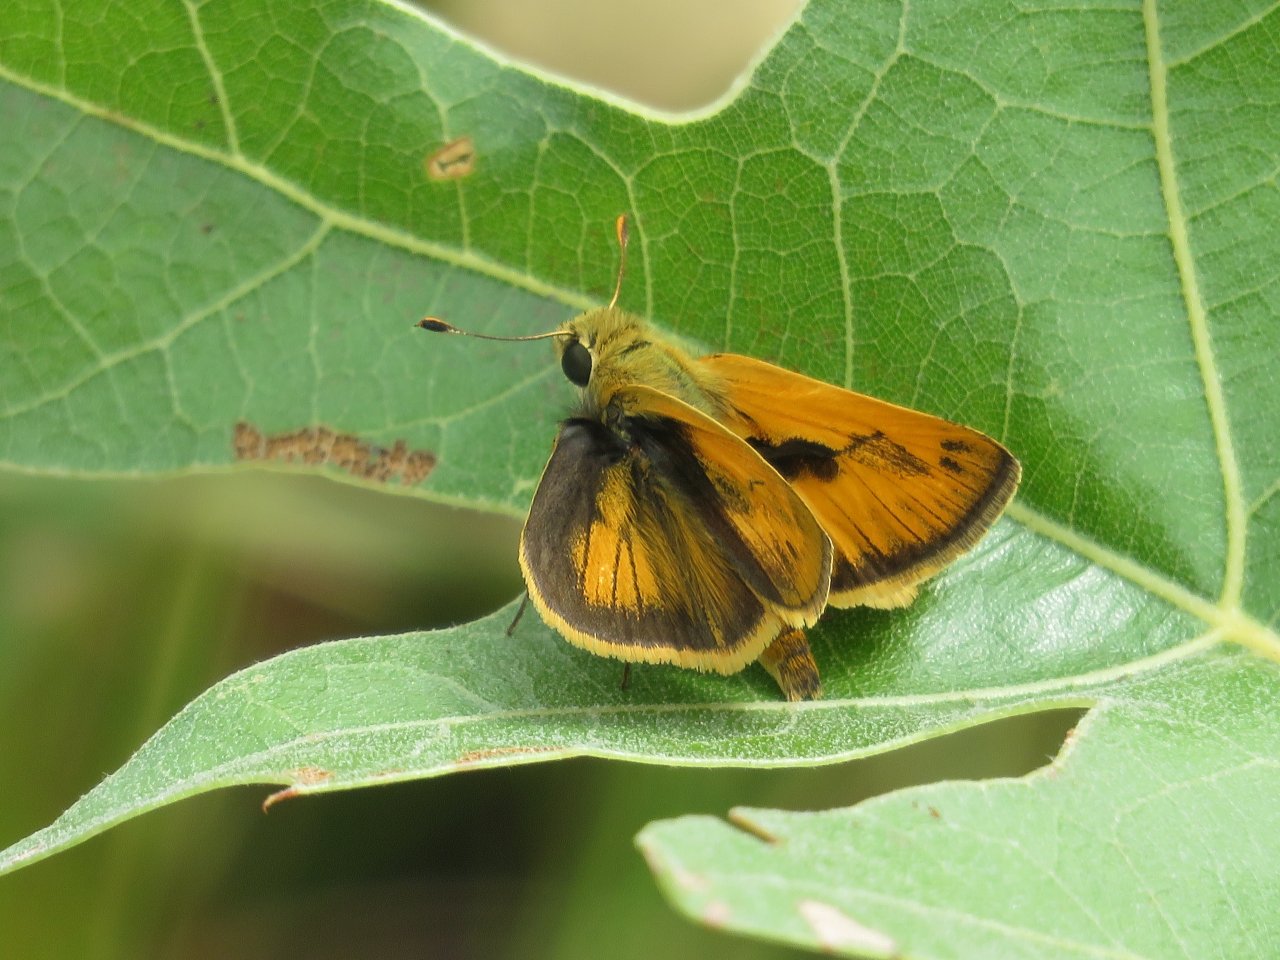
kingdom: Animalia
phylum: Arthropoda
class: Insecta
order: Lepidoptera
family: Hesperiidae
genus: Polites
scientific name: Polites vibex
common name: Whirlabout
